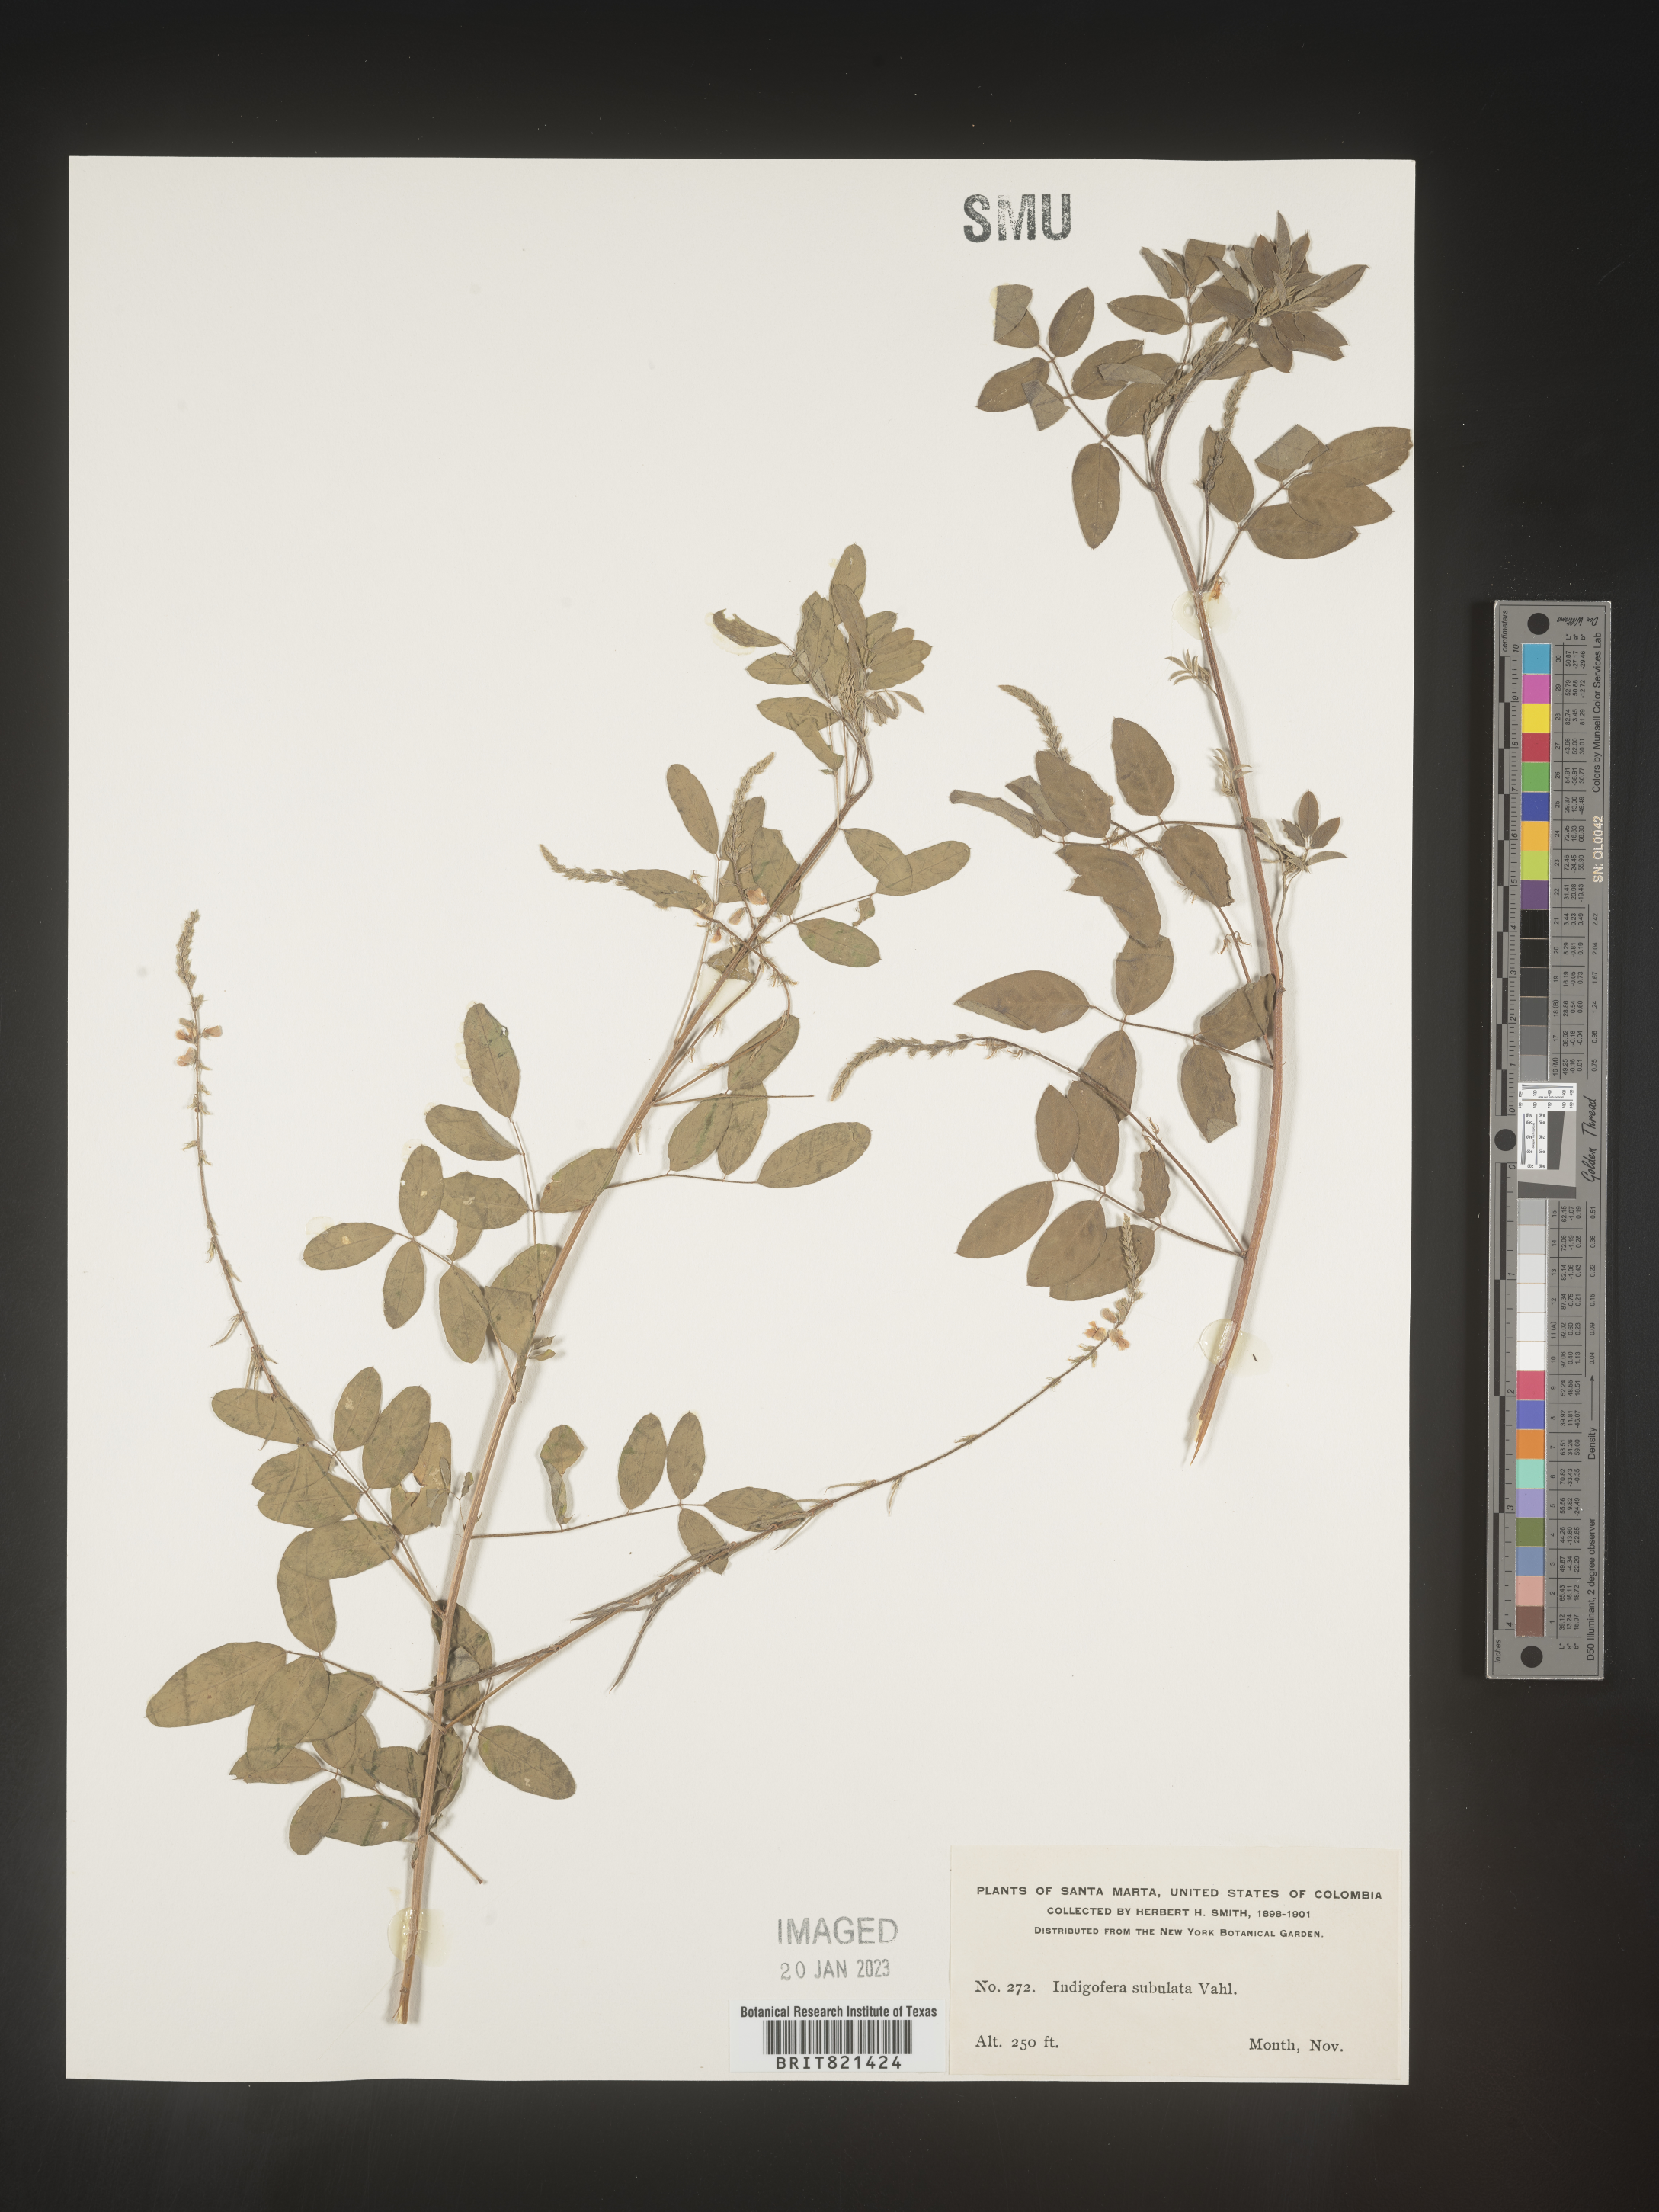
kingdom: Plantae
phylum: Tracheophyta
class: Magnoliopsida
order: Fabales
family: Fabaceae
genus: Indigofera
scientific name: Indigofera
